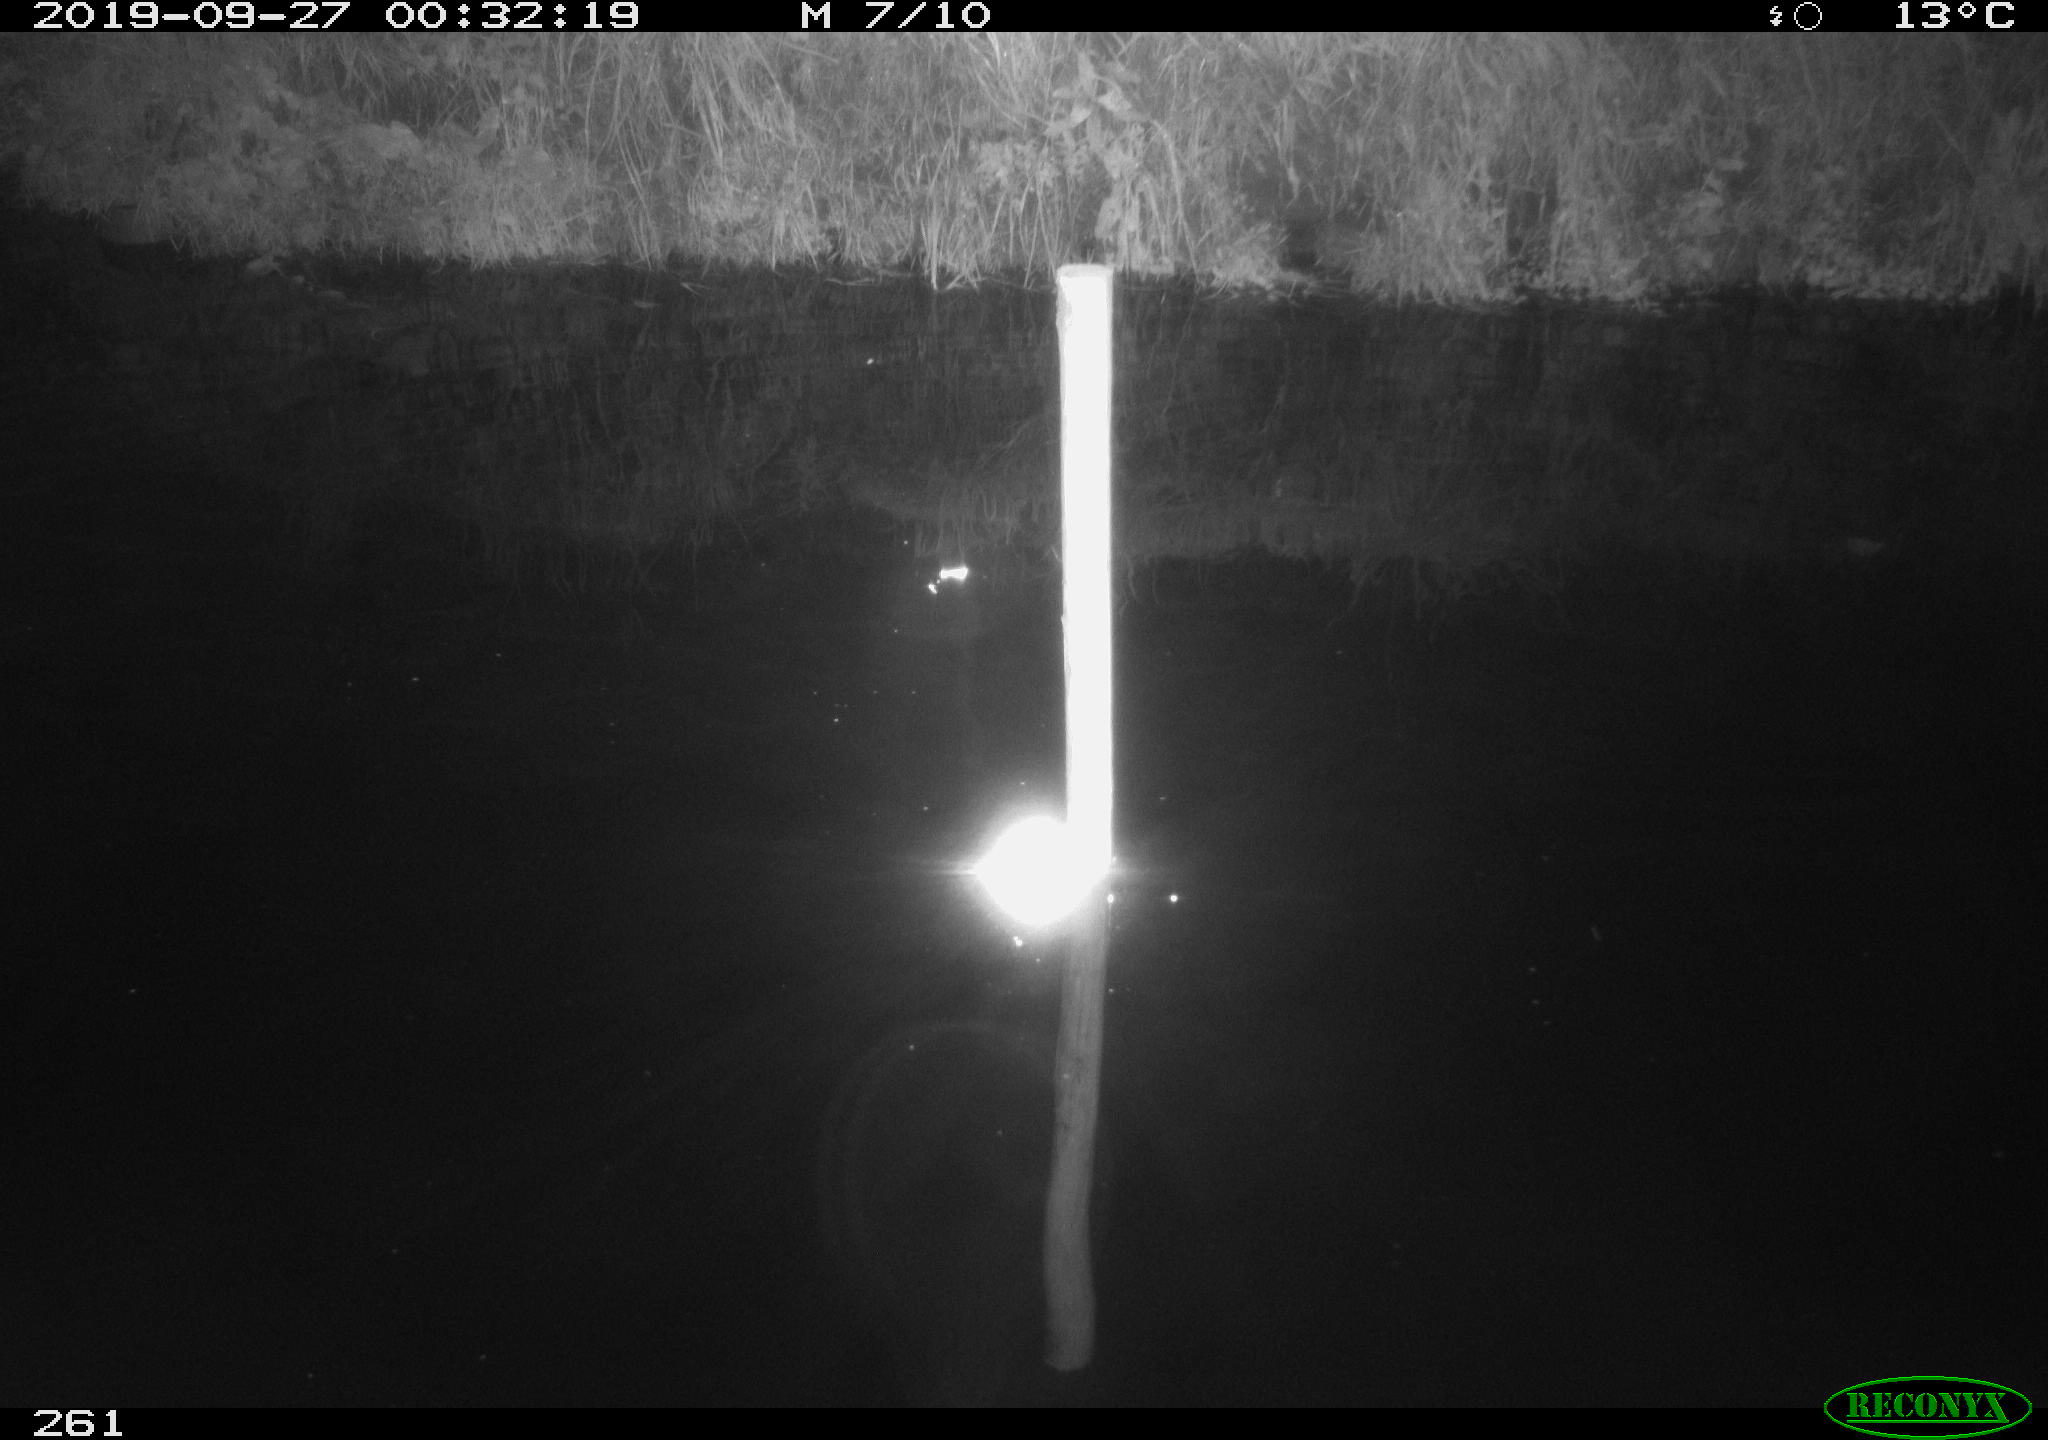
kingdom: Animalia
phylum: Chordata
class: Aves
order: Anseriformes
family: Anatidae
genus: Anas
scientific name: Anas platyrhynchos
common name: Mallard
